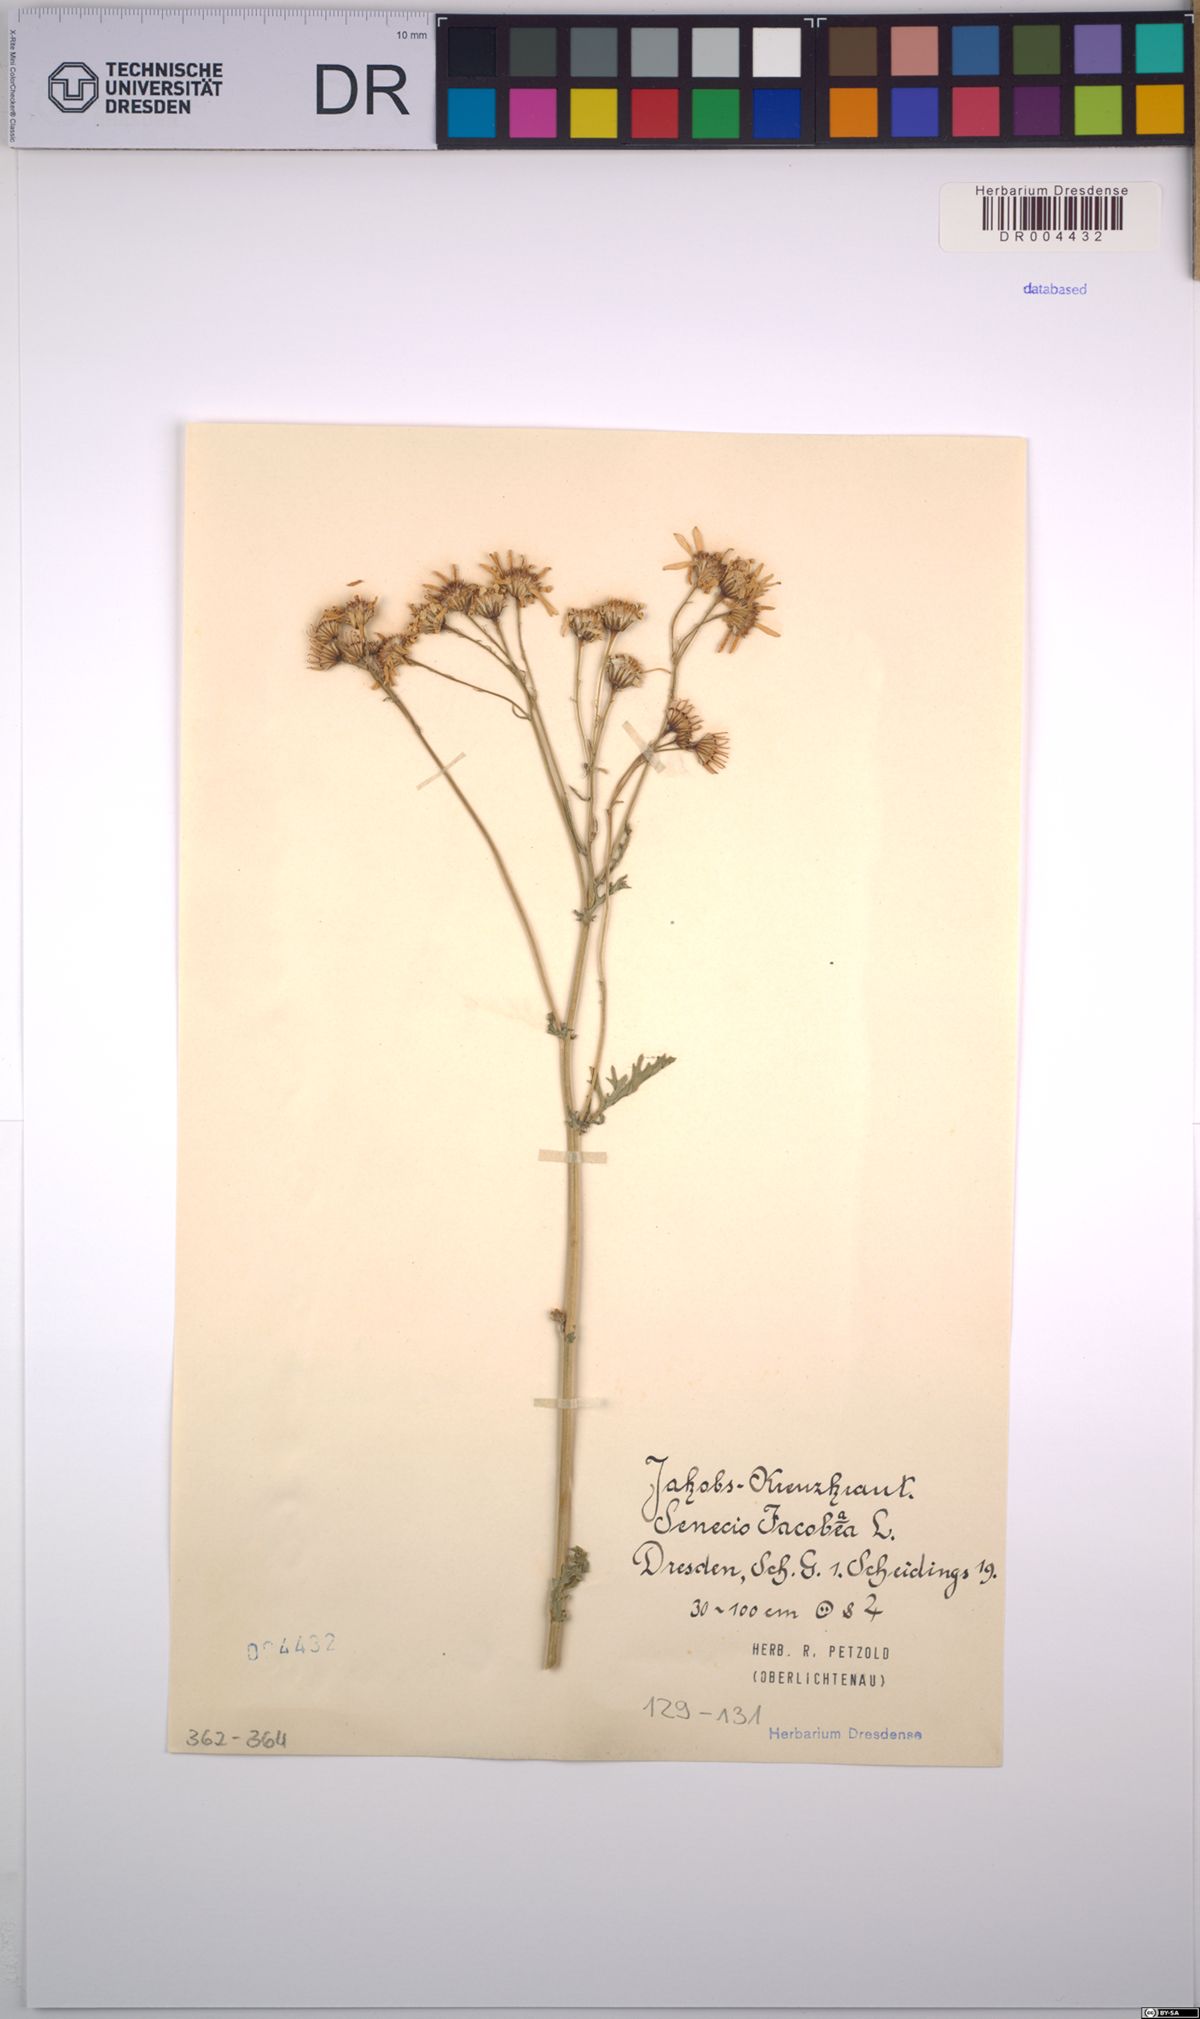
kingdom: Plantae
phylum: Tracheophyta
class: Magnoliopsida
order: Asterales
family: Asteraceae
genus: Jacobaea
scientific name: Jacobaea vulgaris
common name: Stinking willie
